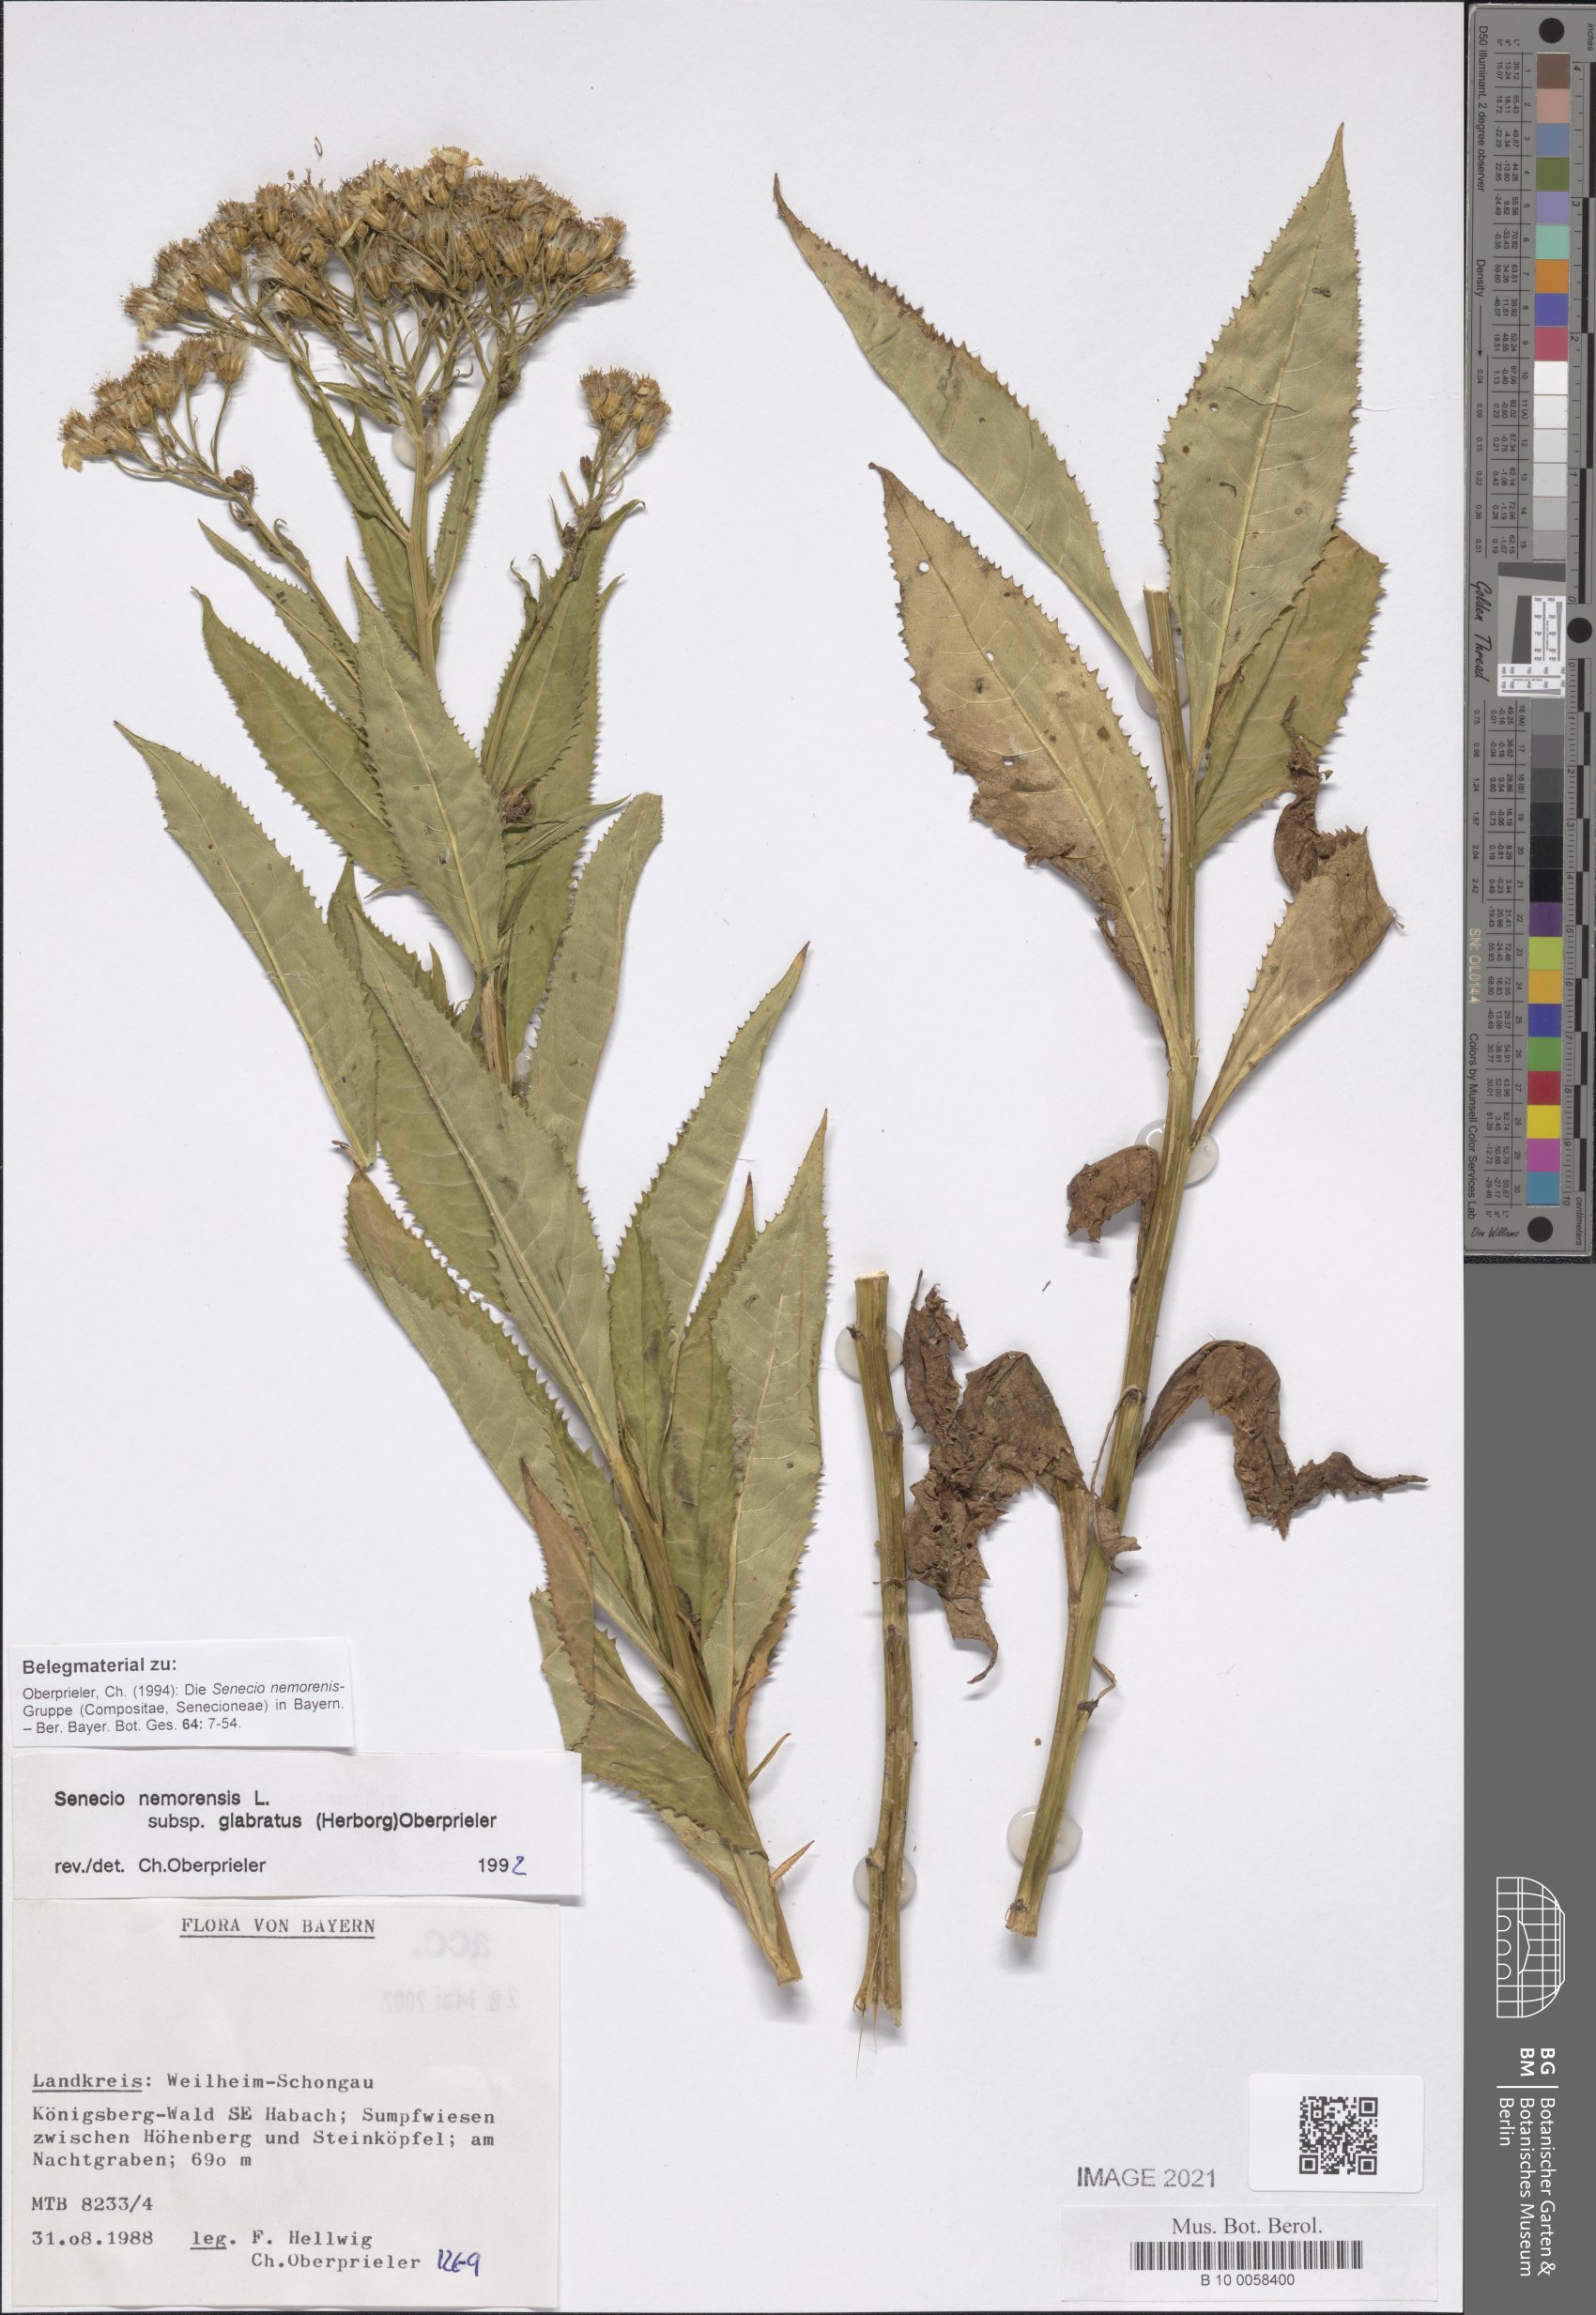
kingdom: Plantae
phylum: Tracheophyta
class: Magnoliopsida
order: Asterales
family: Asteraceae
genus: Senecio
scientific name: Senecio germanicus
